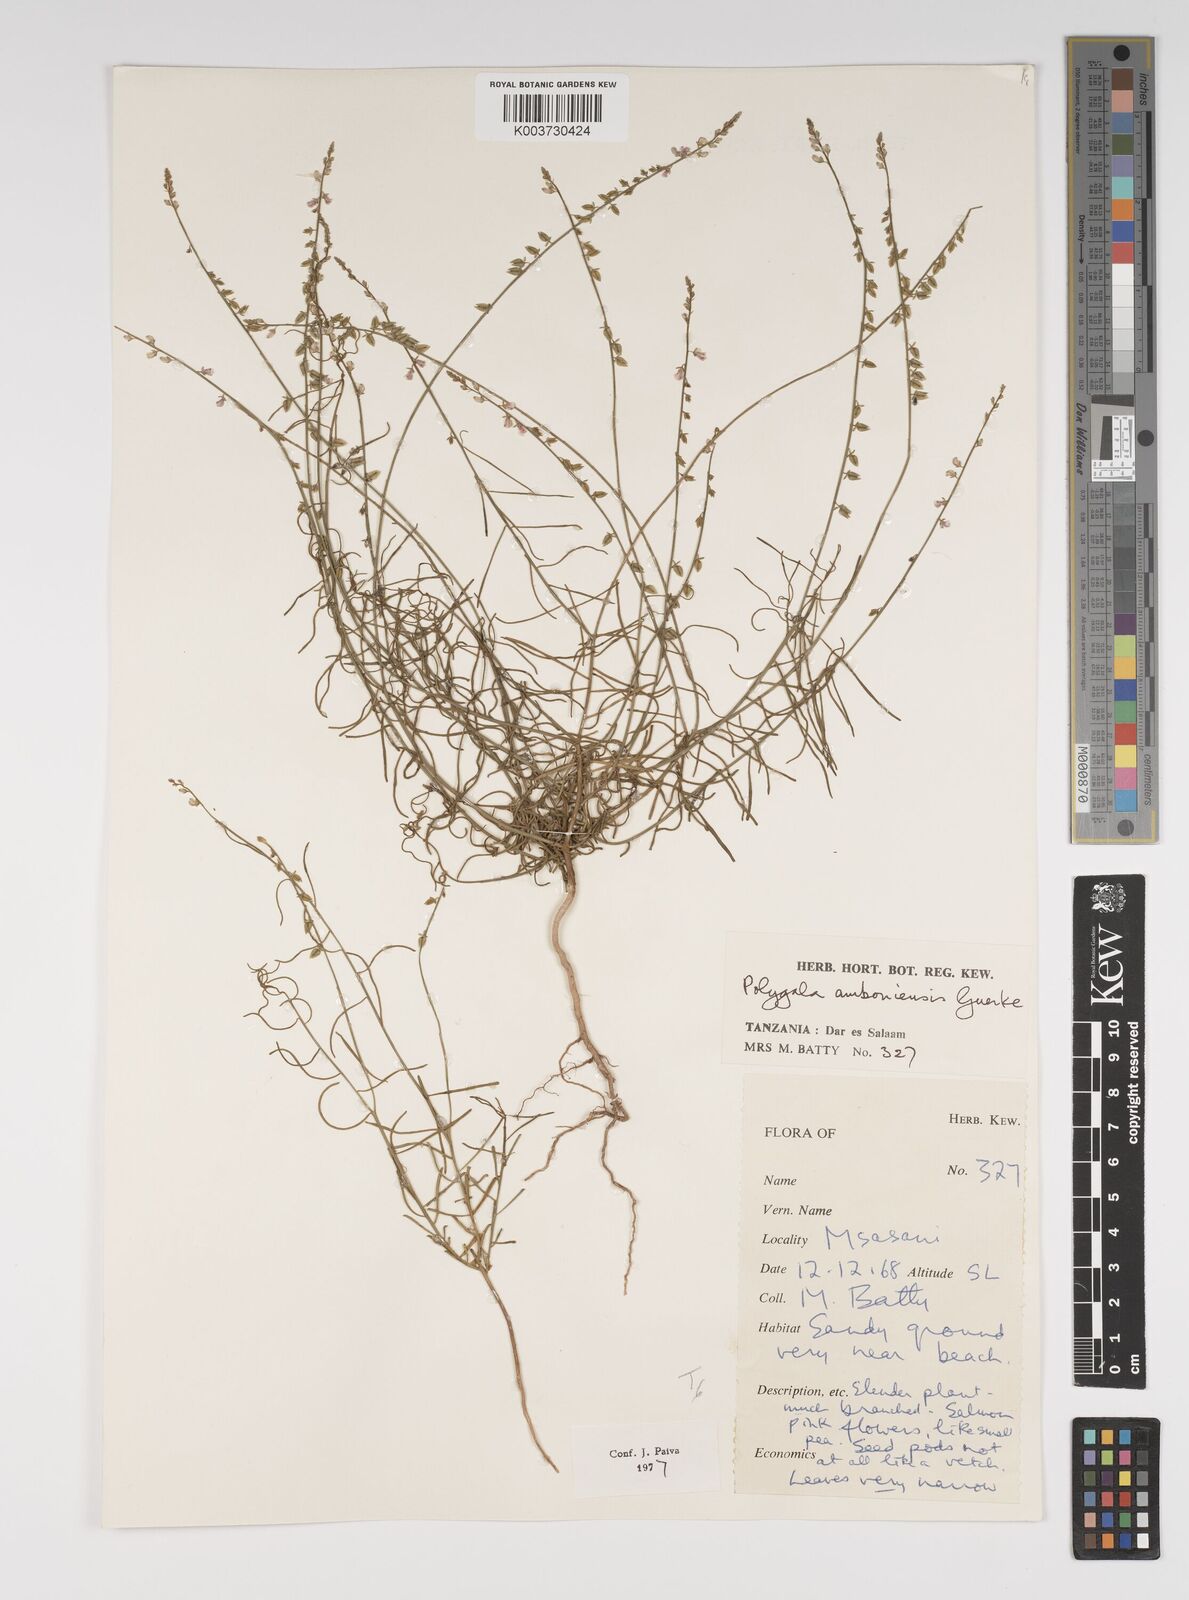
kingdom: Plantae
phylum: Tracheophyta
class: Magnoliopsida
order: Fabales
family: Polygalaceae
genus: Polygala
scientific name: Polygala amboniensis
